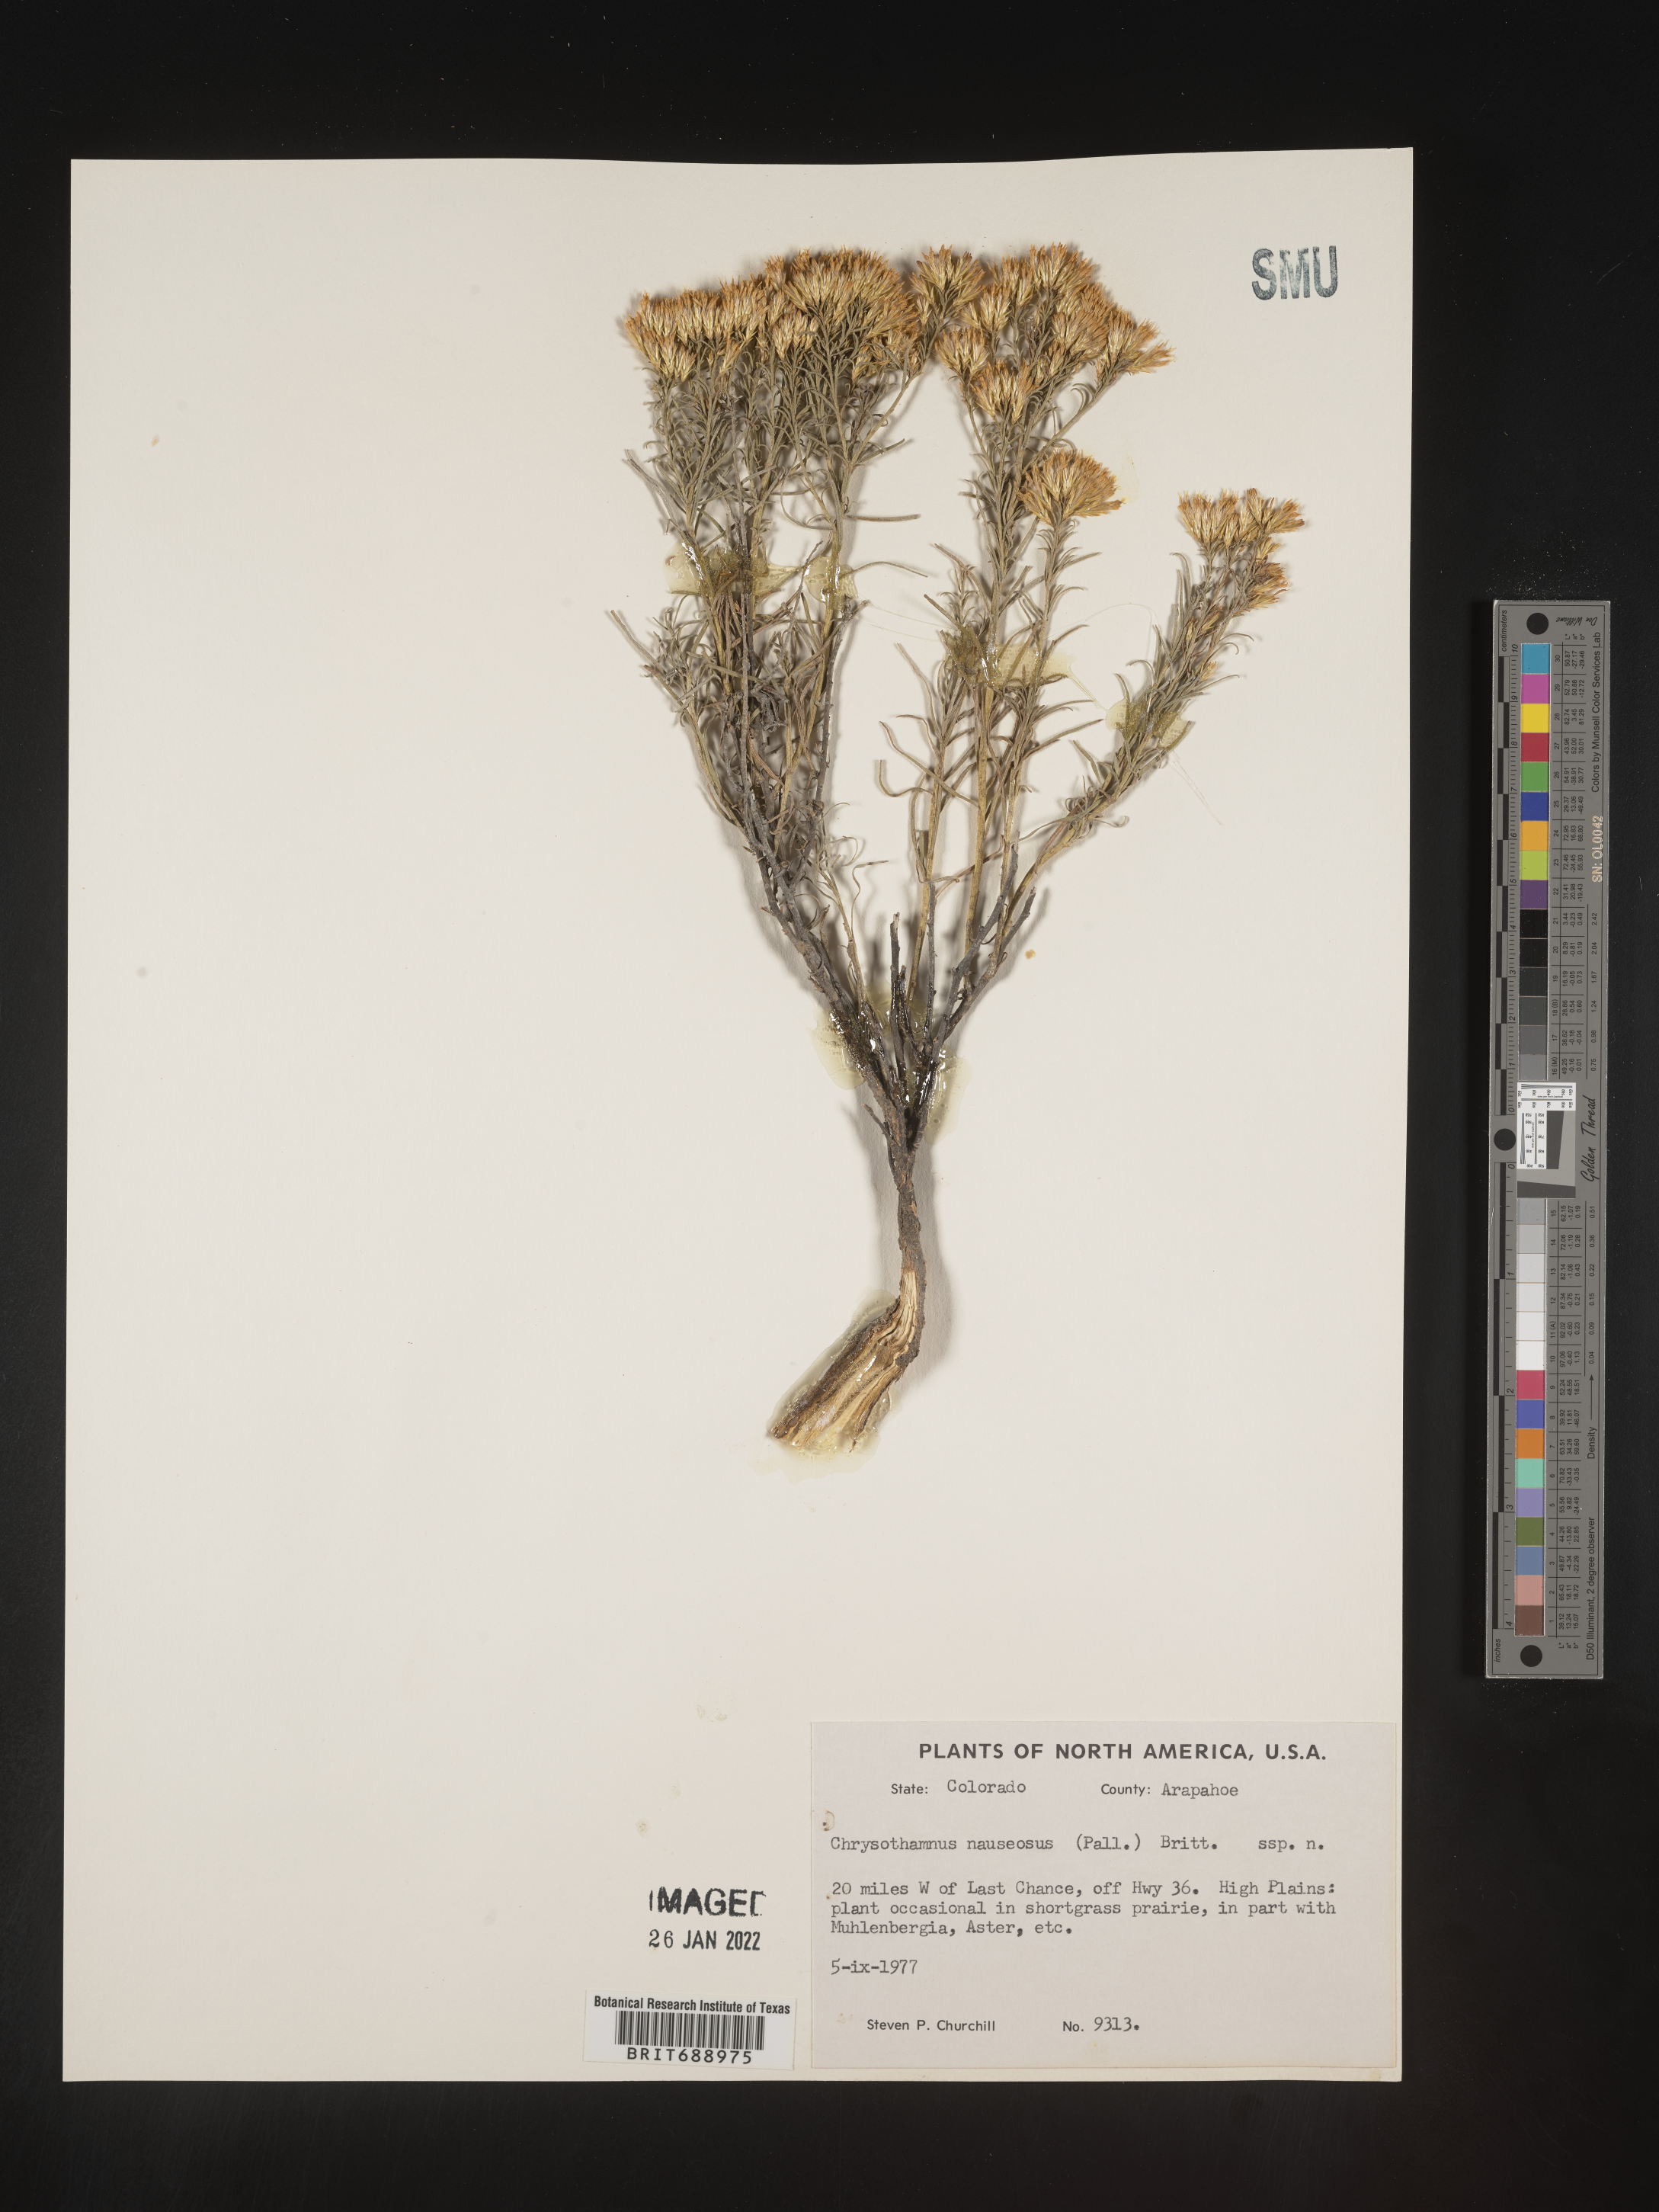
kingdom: Plantae
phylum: Tracheophyta
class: Magnoliopsida
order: Asterales
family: Asteraceae
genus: Ericameria
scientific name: Ericameria nauseosa
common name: Rubber rabbitbrush
